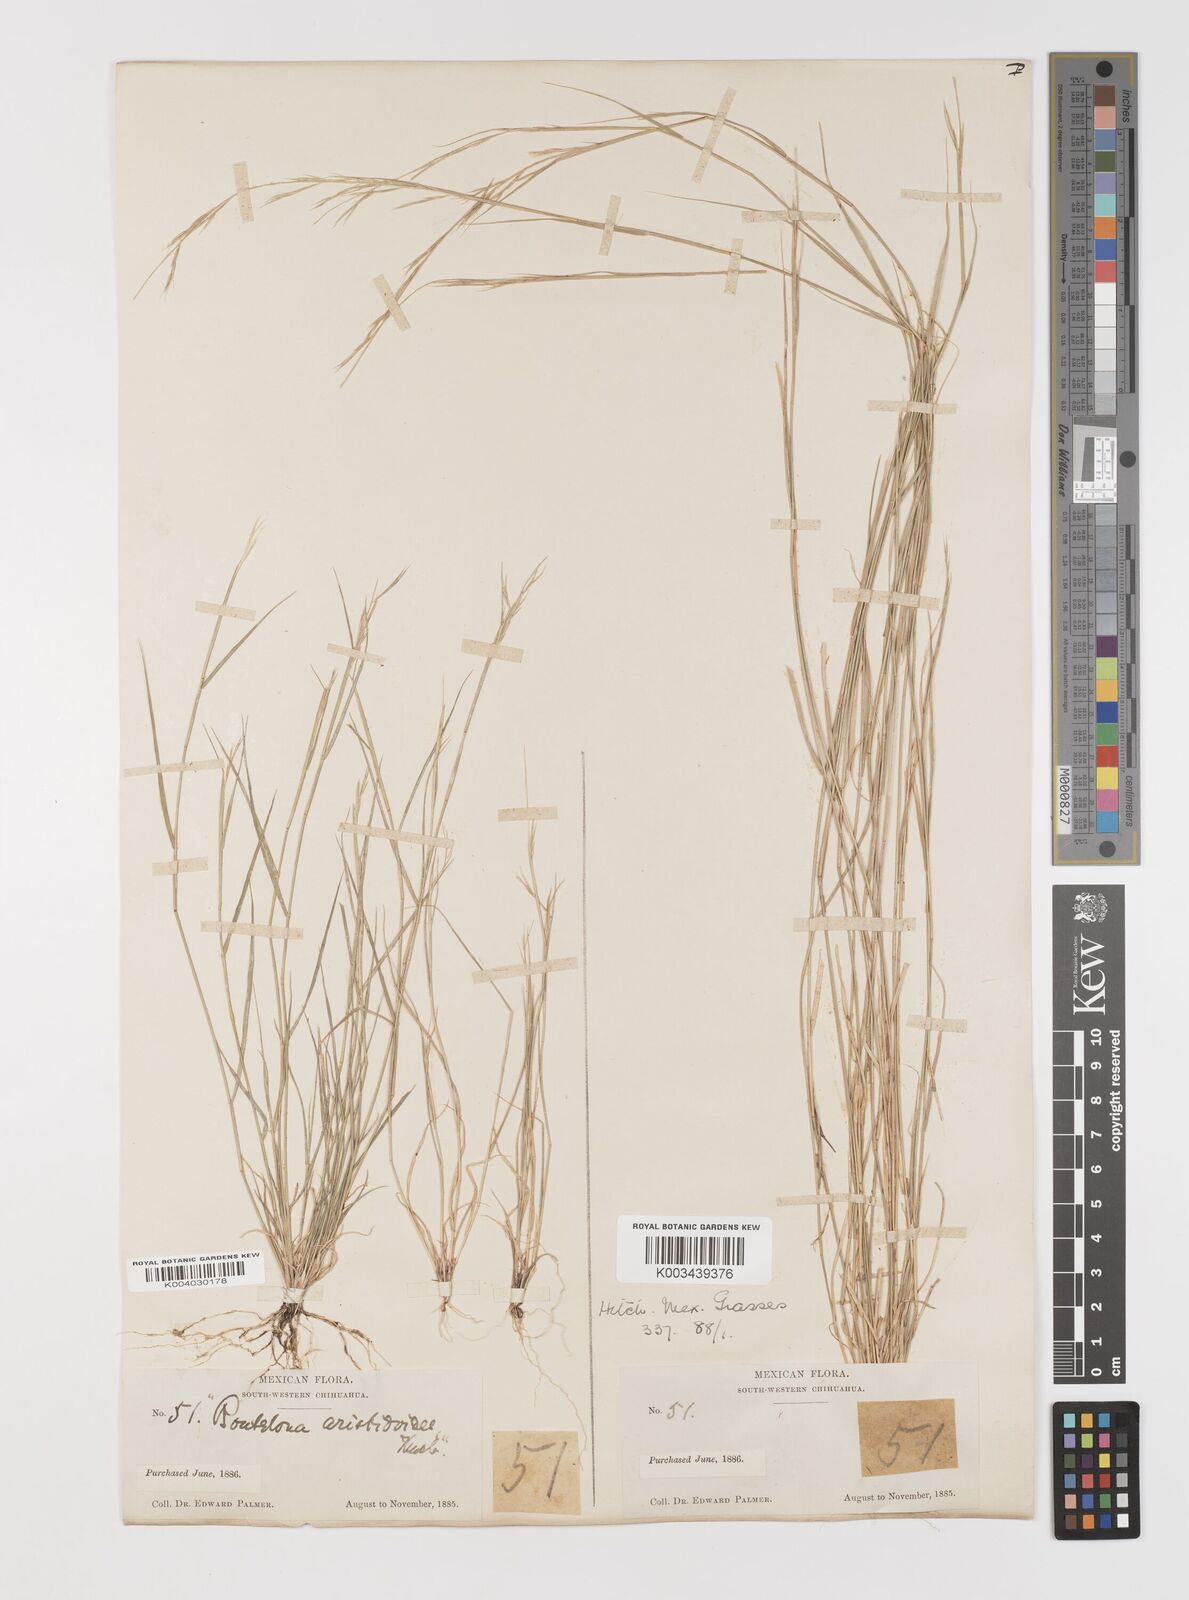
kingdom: Plantae
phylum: Tracheophyta
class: Liliopsida
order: Poales
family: Poaceae
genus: Bouteloua
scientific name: Bouteloua aristidoides
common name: Needle grama
